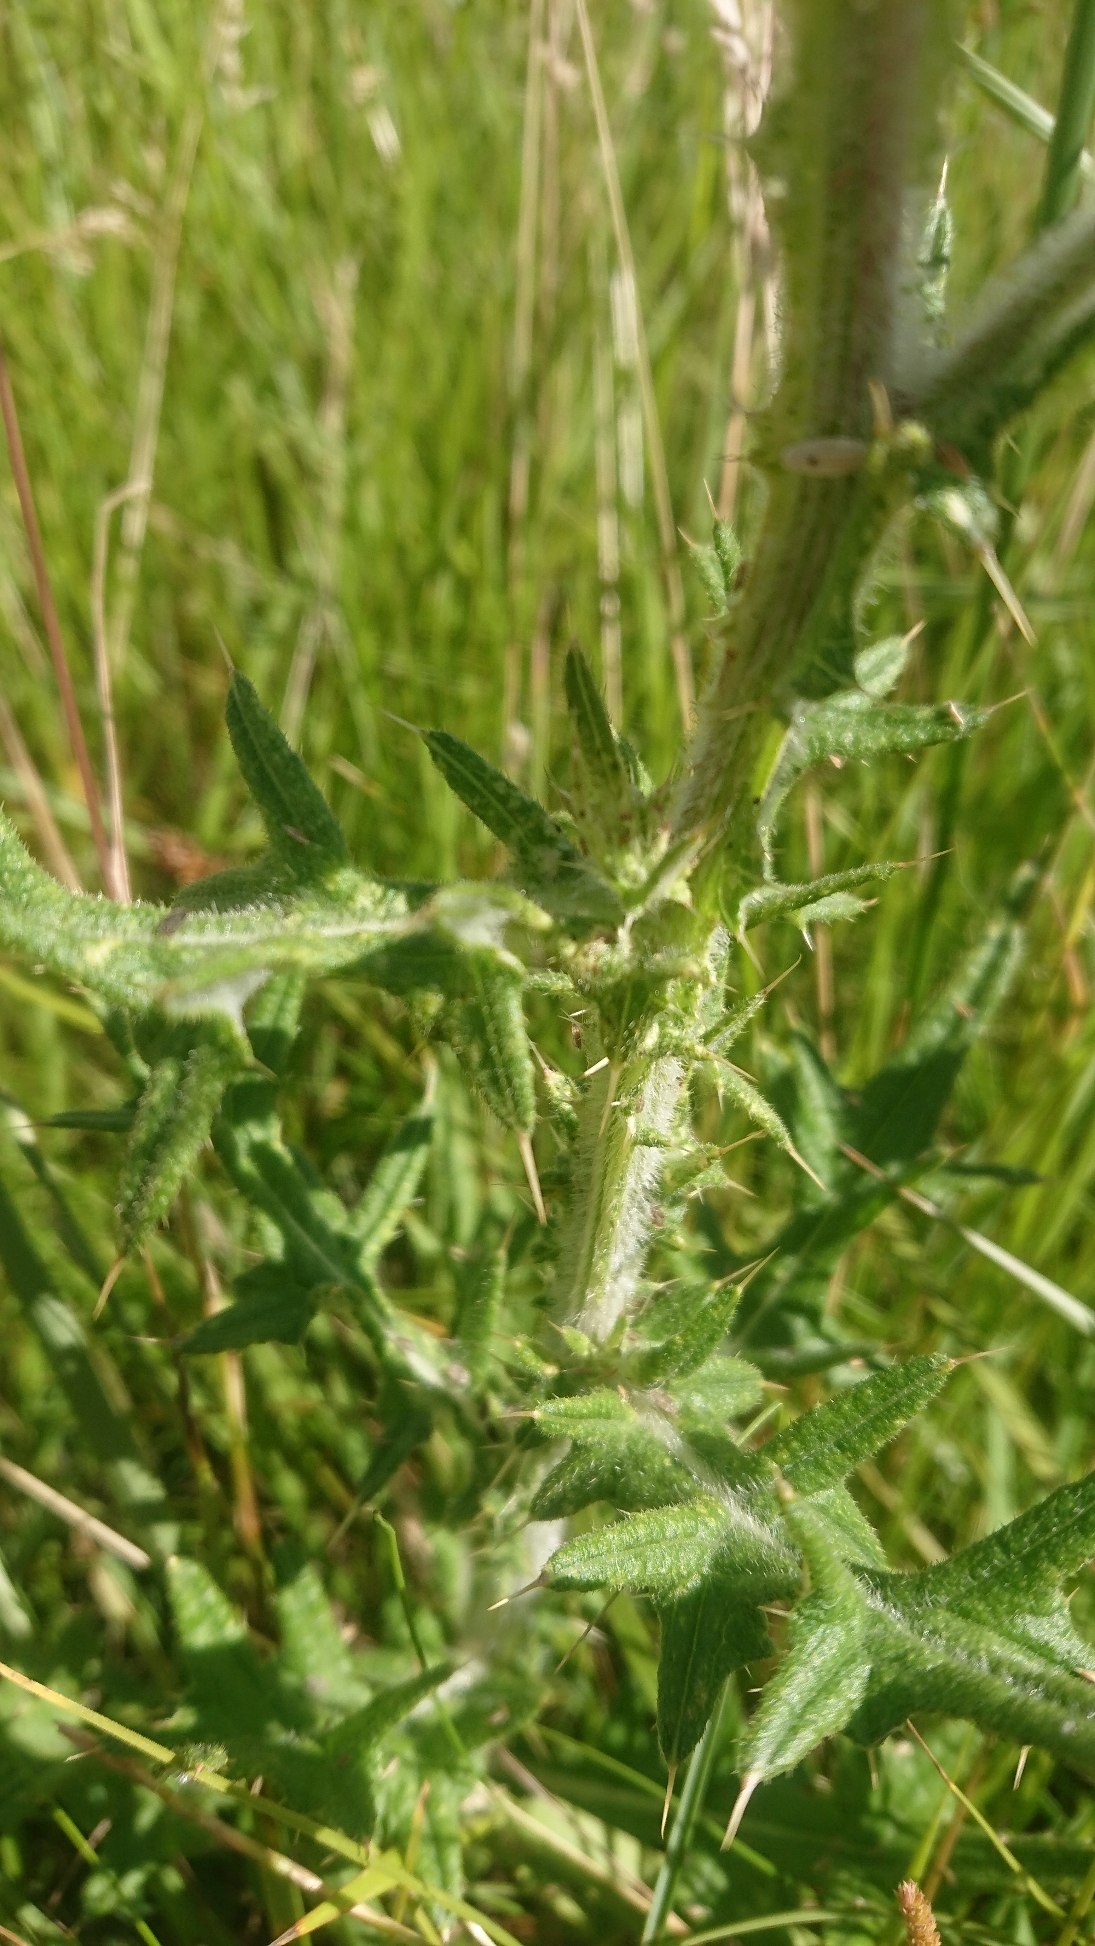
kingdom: Plantae
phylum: Tracheophyta
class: Magnoliopsida
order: Asterales
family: Asteraceae
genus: Cirsium
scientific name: Cirsium vulgare
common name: Horse-tidsel
